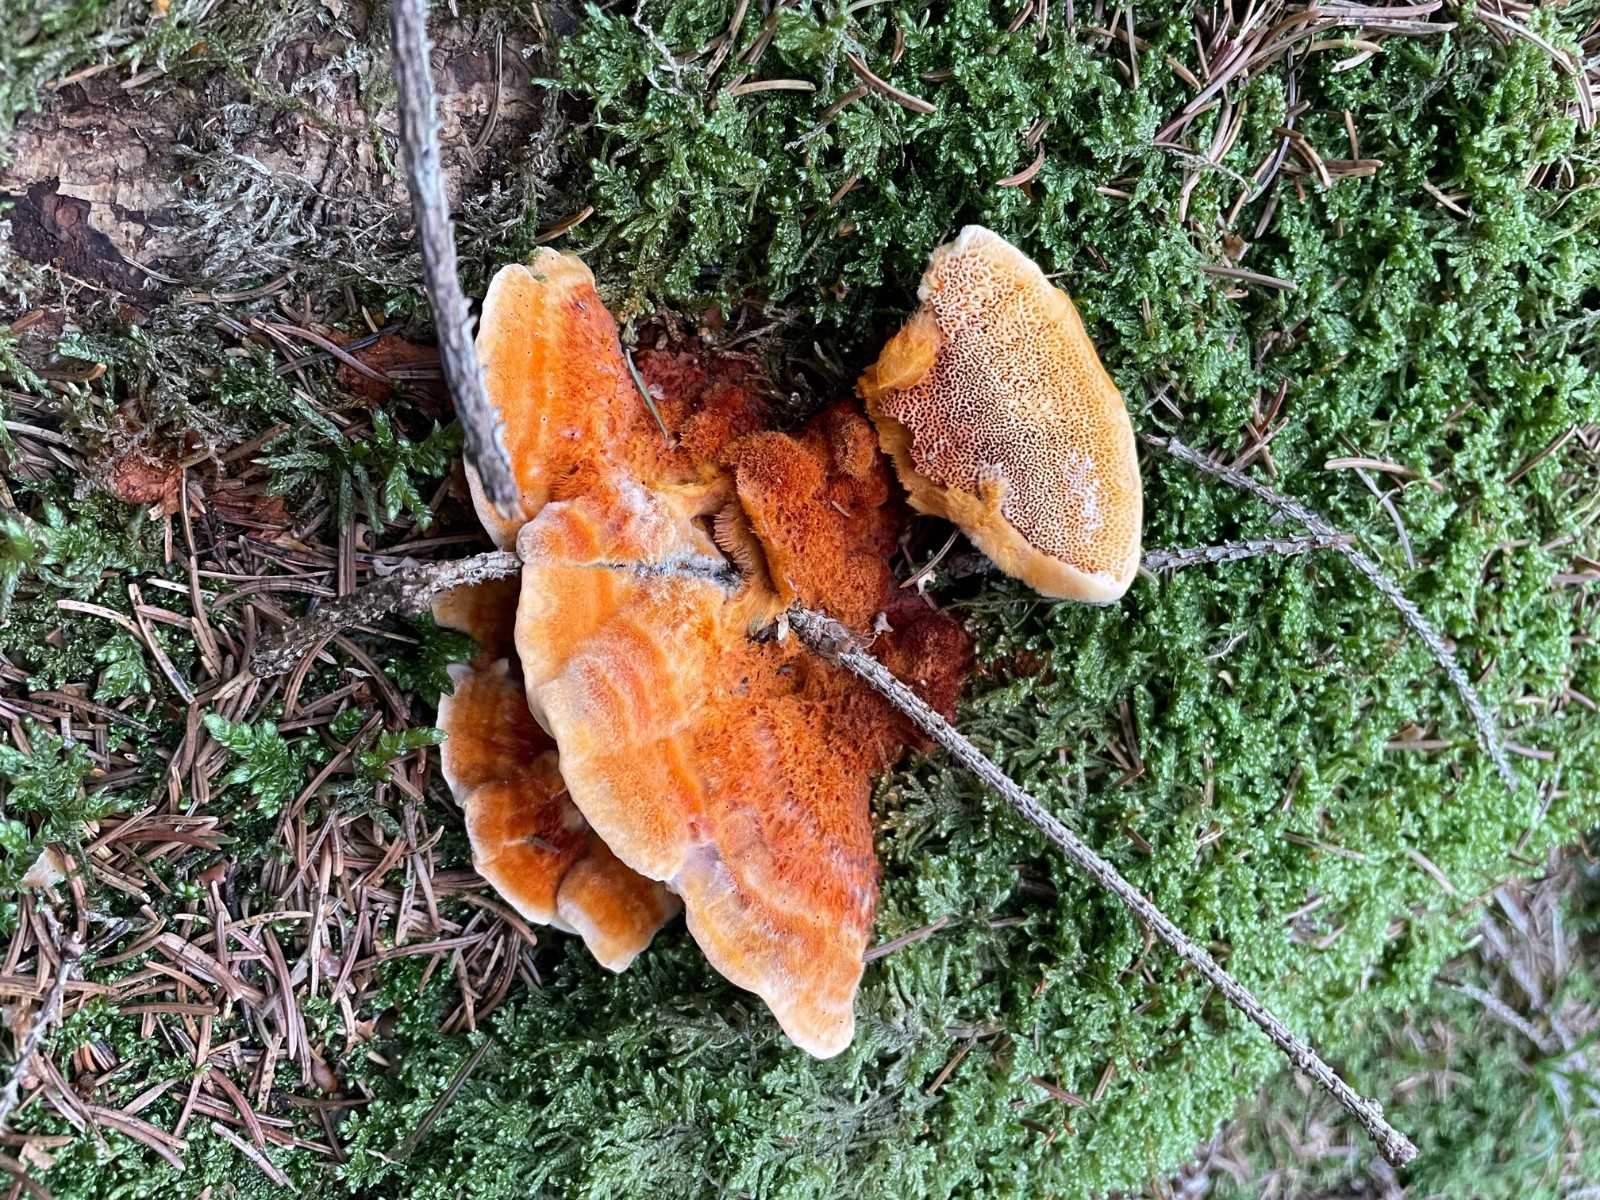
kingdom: Fungi
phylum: Basidiomycota
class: Agaricomycetes
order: Polyporales
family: Pycnoporellaceae
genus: Pycnoporellus
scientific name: Pycnoporellus fulgens
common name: flammeporesvamp
